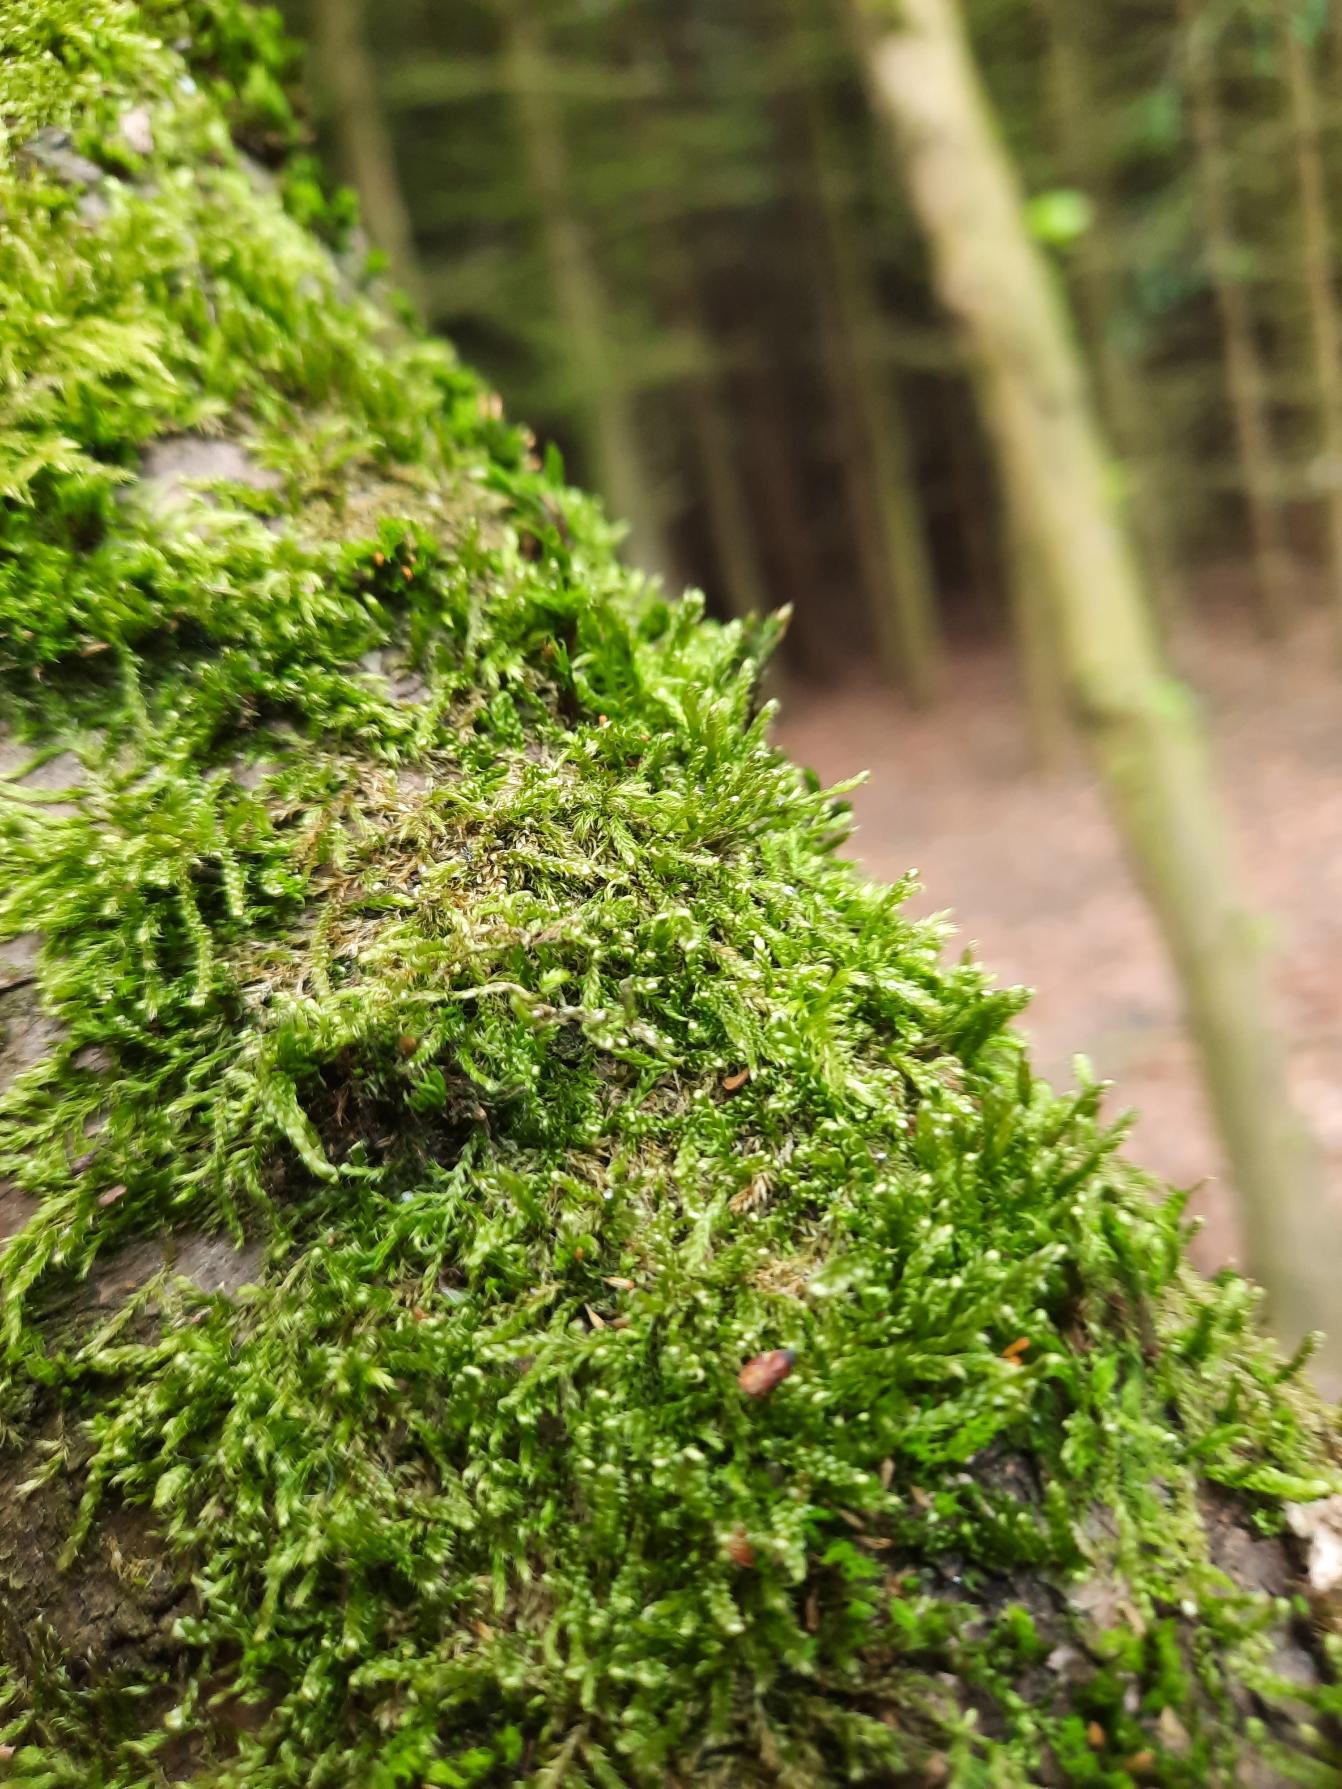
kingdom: Plantae
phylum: Bryophyta
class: Bryopsida
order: Hypnales
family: Hypnaceae
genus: Hypnum
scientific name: Hypnum cupressiforme
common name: Almindelig cypresmos
